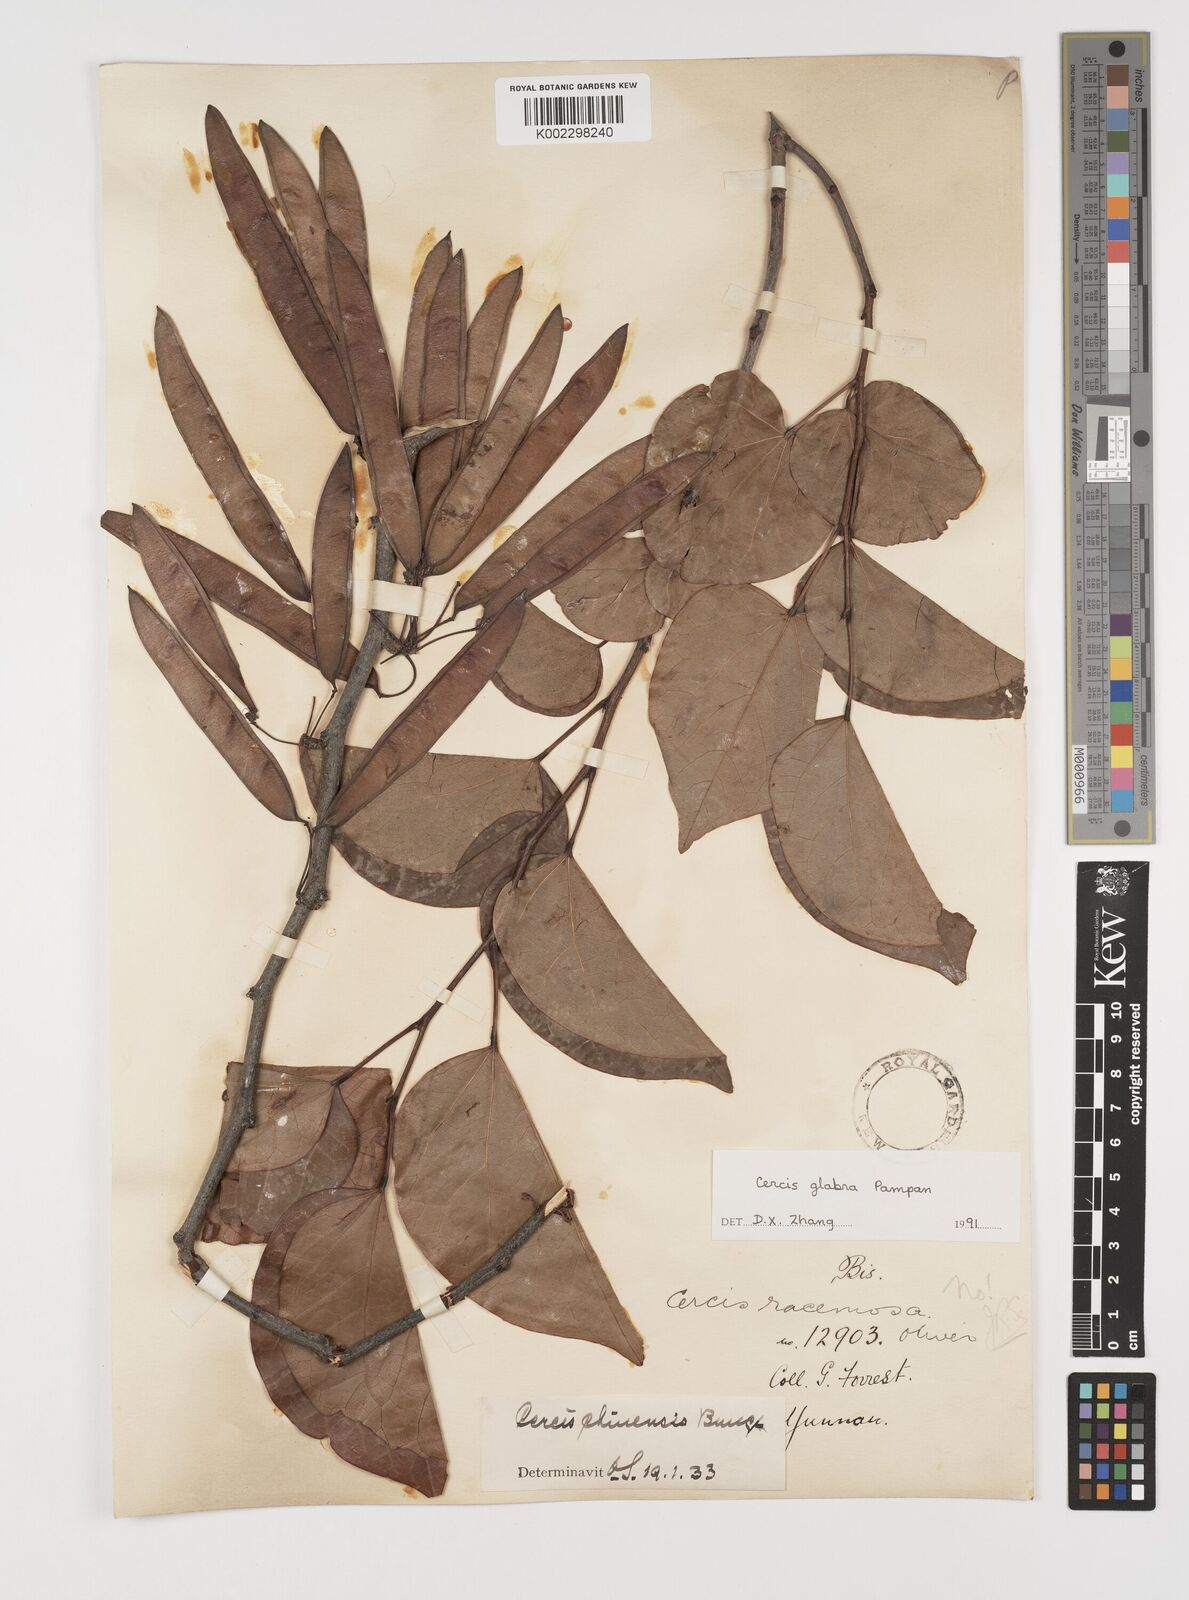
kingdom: Plantae
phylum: Tracheophyta
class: Magnoliopsida
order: Fabales
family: Fabaceae
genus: Cercis
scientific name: Cercis glabra
